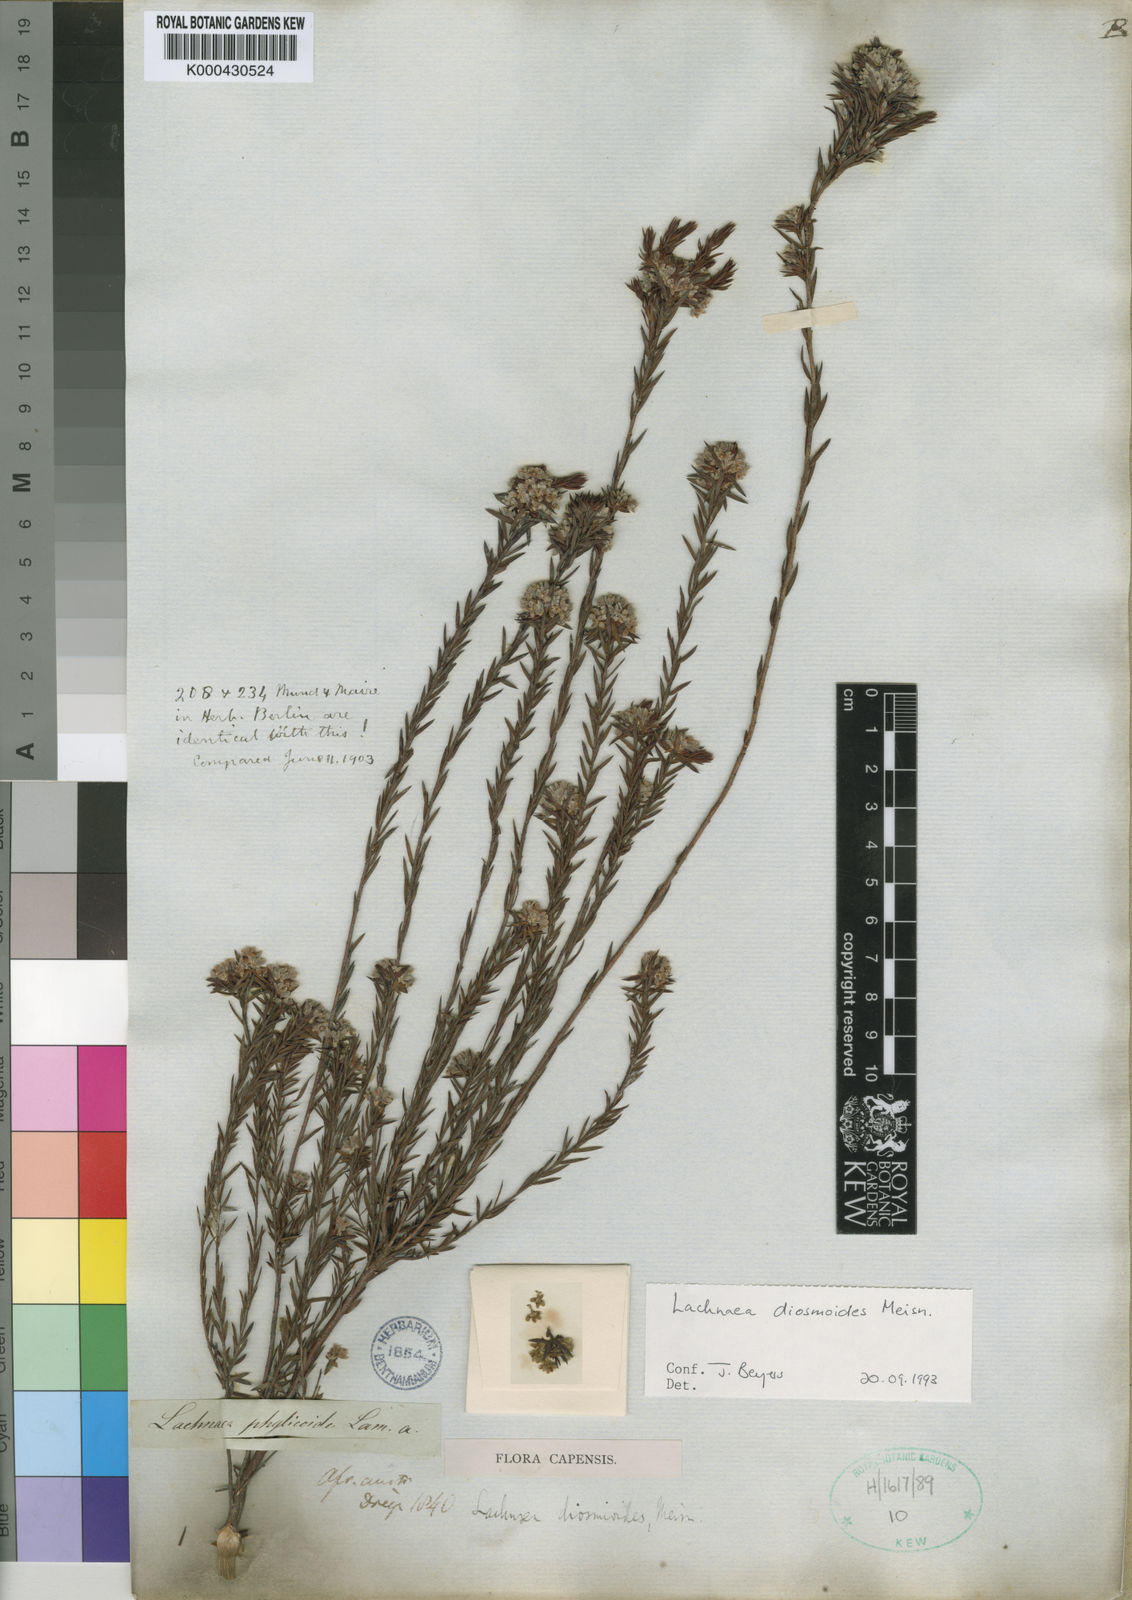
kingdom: Plantae
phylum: Tracheophyta
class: Magnoliopsida
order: Malvales
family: Thymelaeaceae
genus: Lachnaea
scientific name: Lachnaea diosmoides
